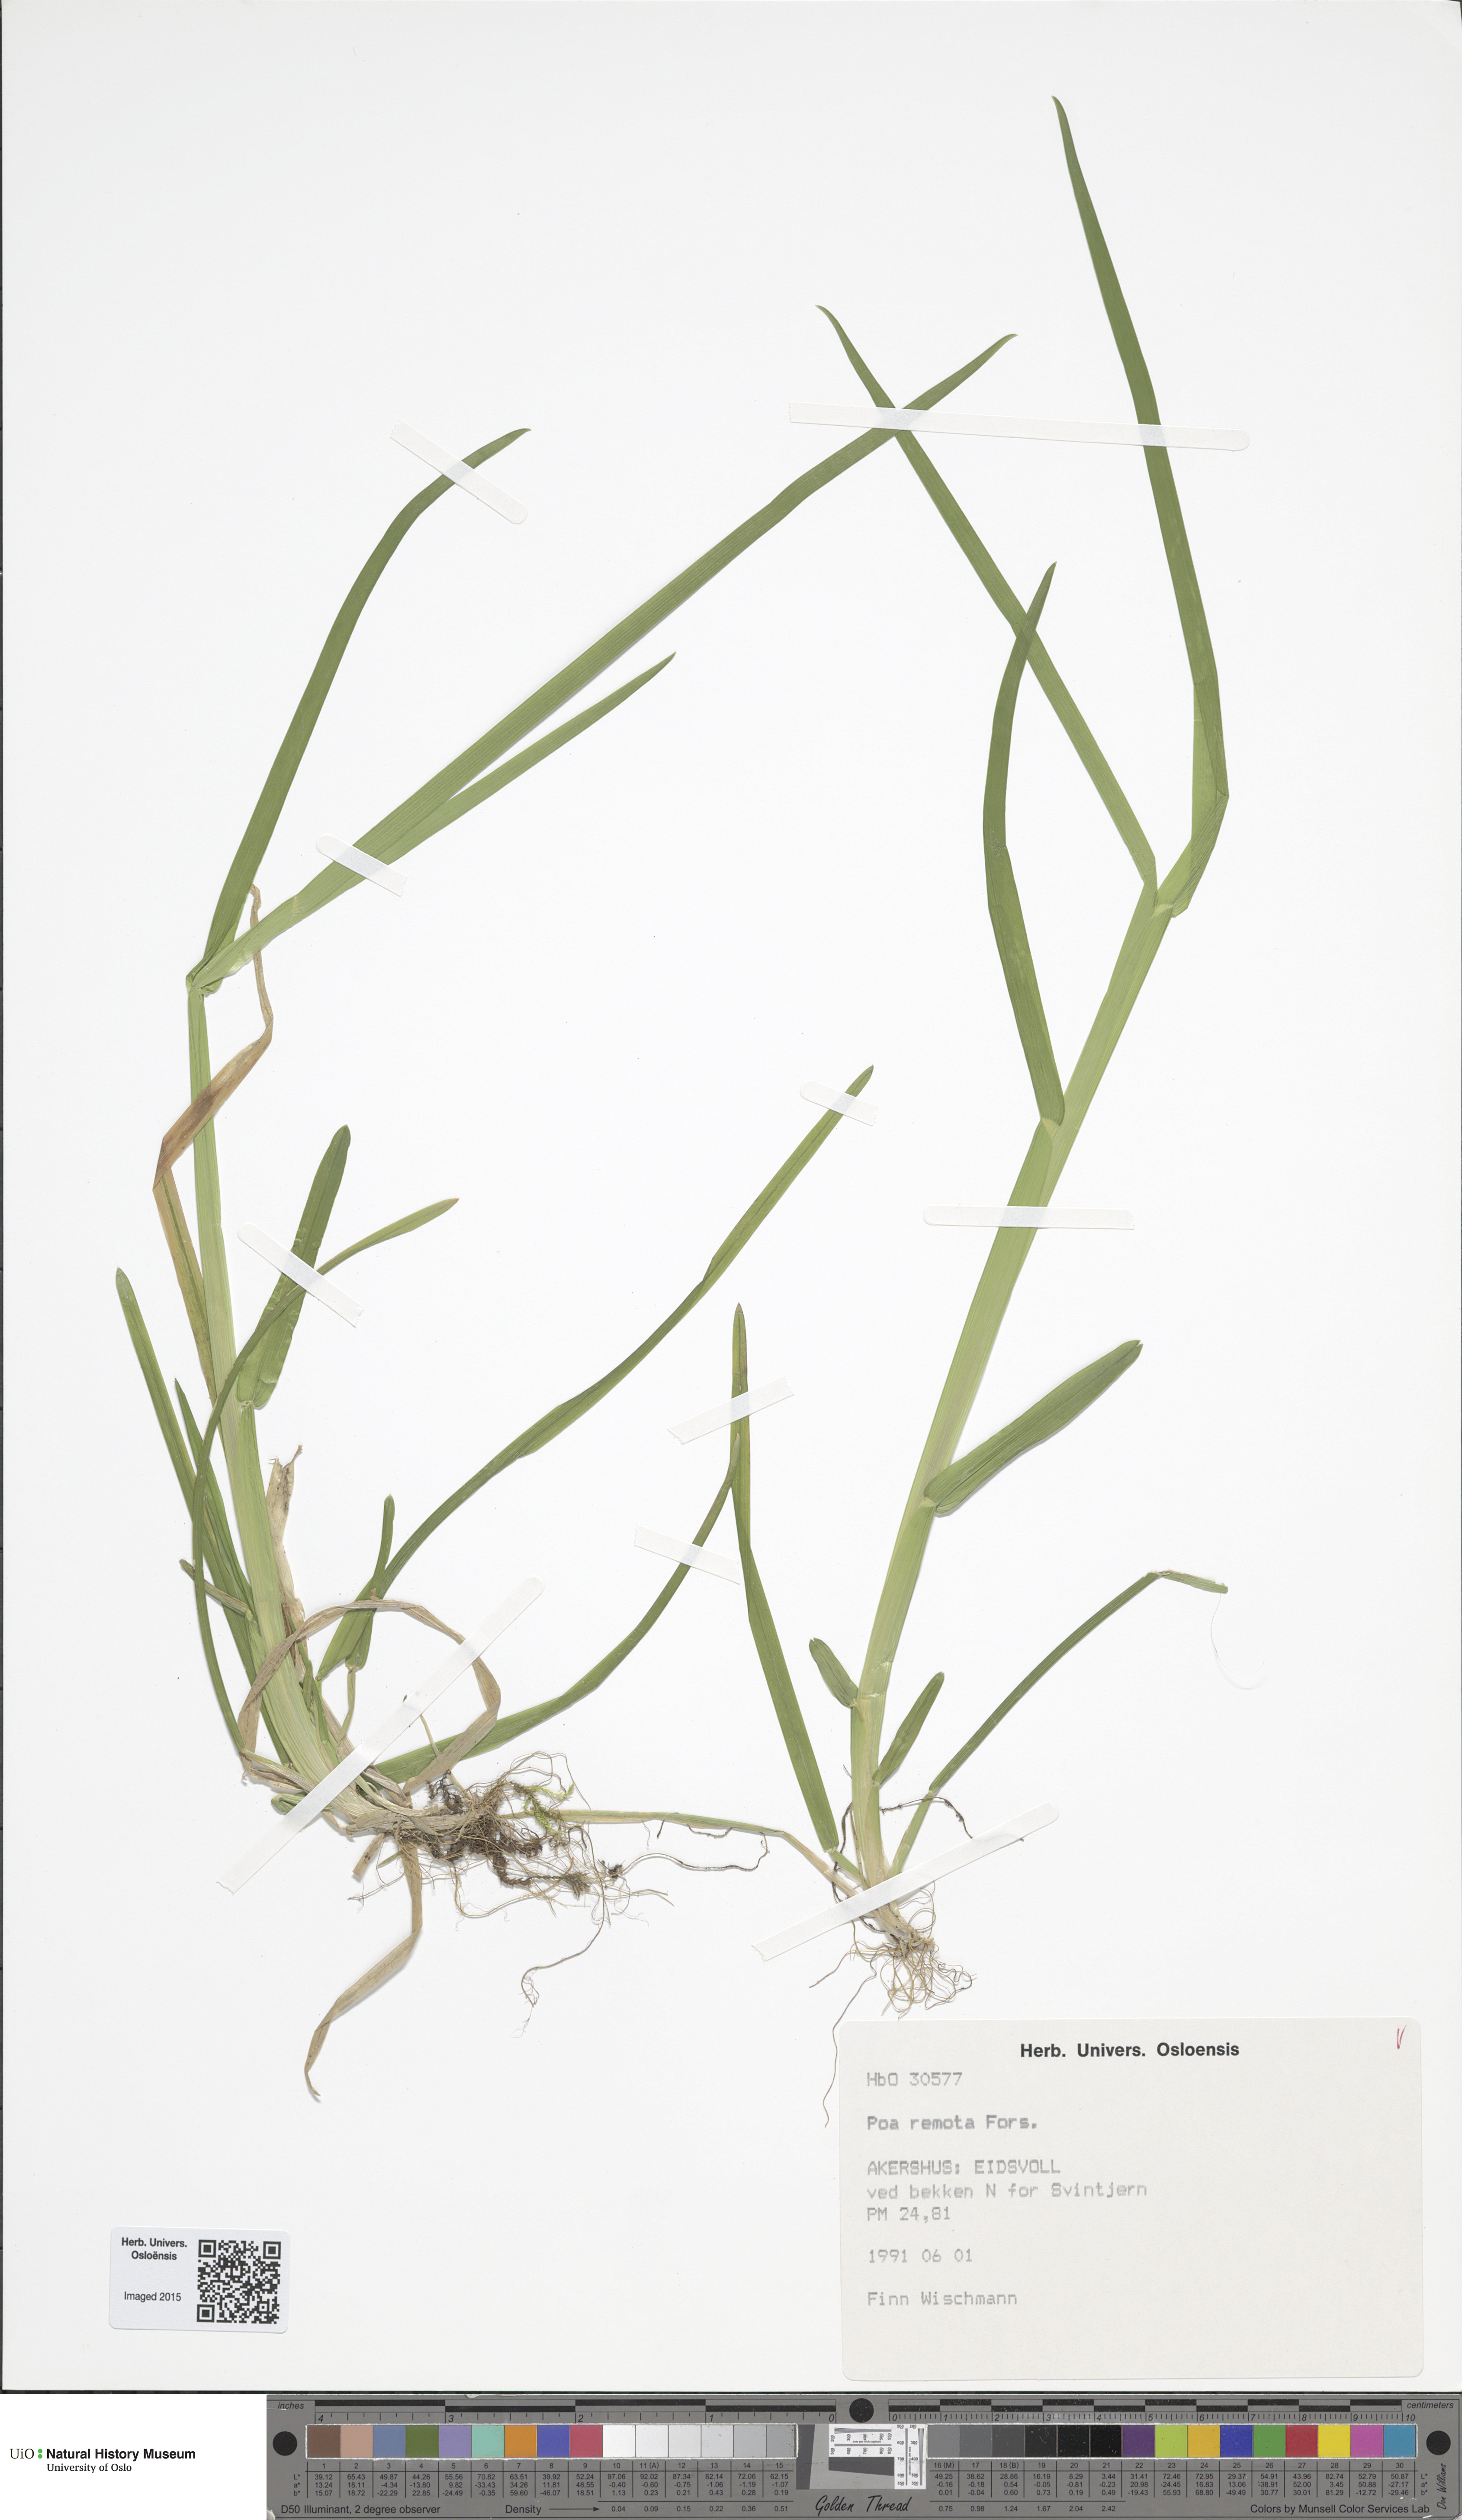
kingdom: Plantae
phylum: Tracheophyta
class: Liliopsida
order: Poales
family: Poaceae
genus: Poa
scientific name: Poa remota
